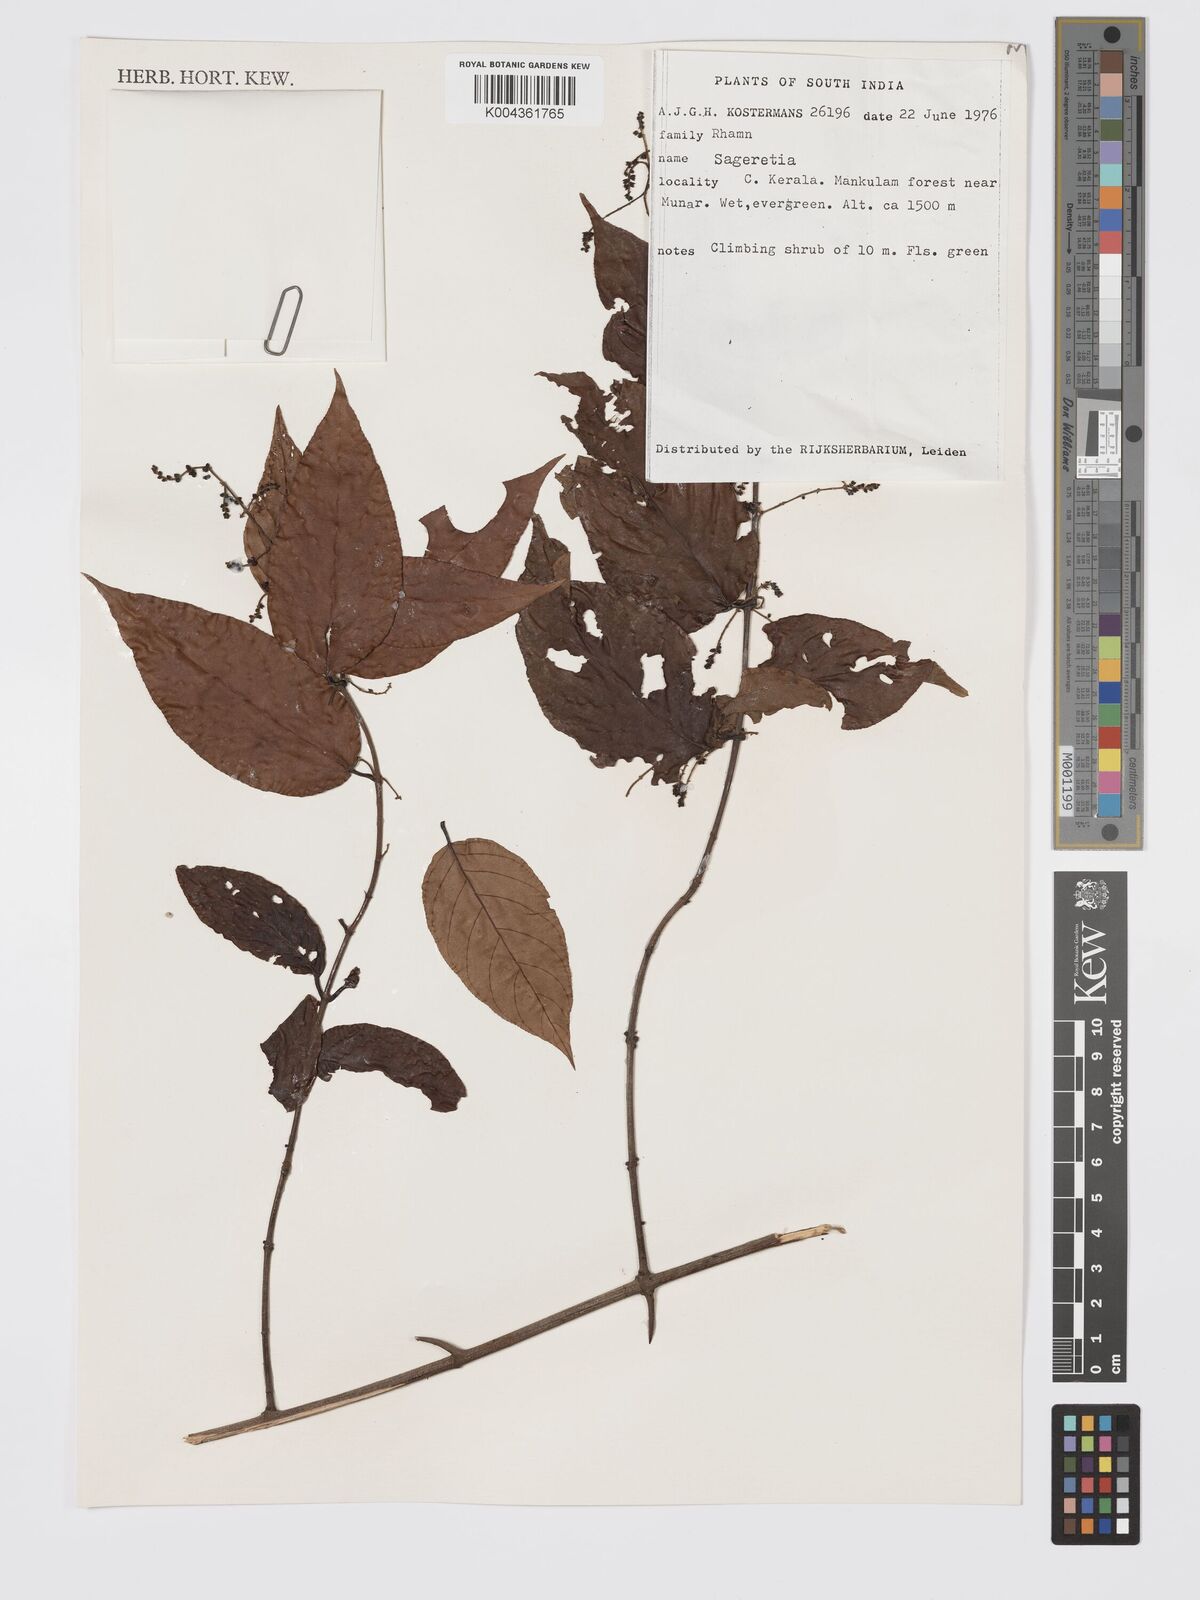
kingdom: Plantae
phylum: Tracheophyta
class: Magnoliopsida
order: Rosales
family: Rhamnaceae
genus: Sageretia
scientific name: Sageretia
